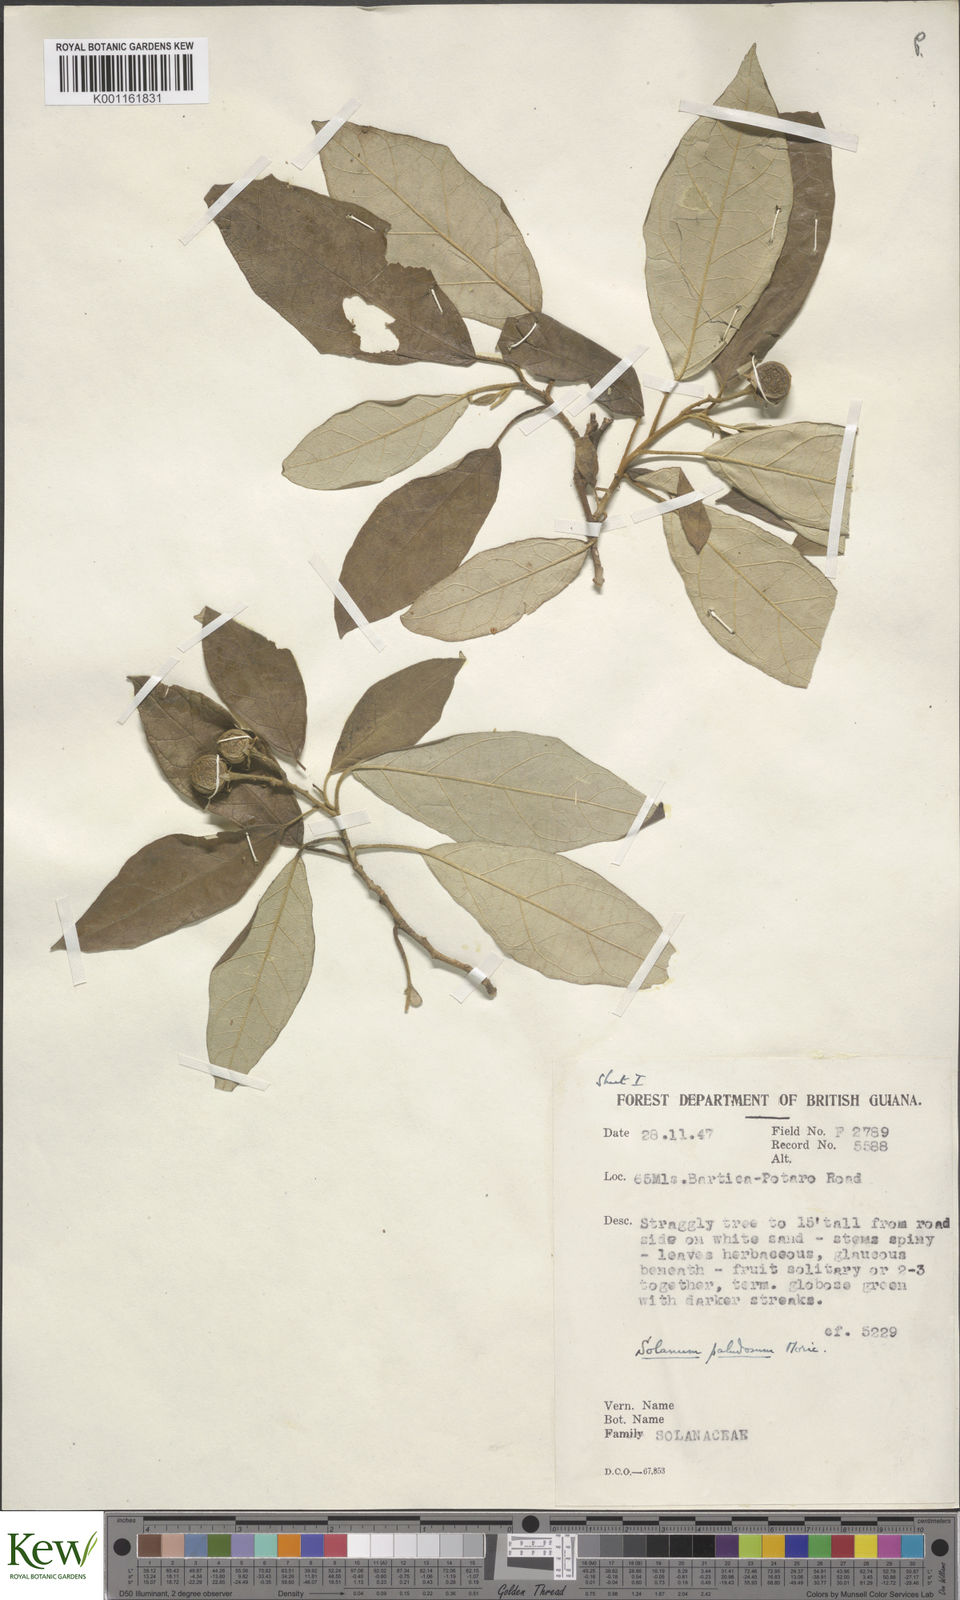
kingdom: Plantae
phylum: Tracheophyta
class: Magnoliopsida
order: Solanales
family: Solanaceae
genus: Solanum
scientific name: Solanum paludosum
